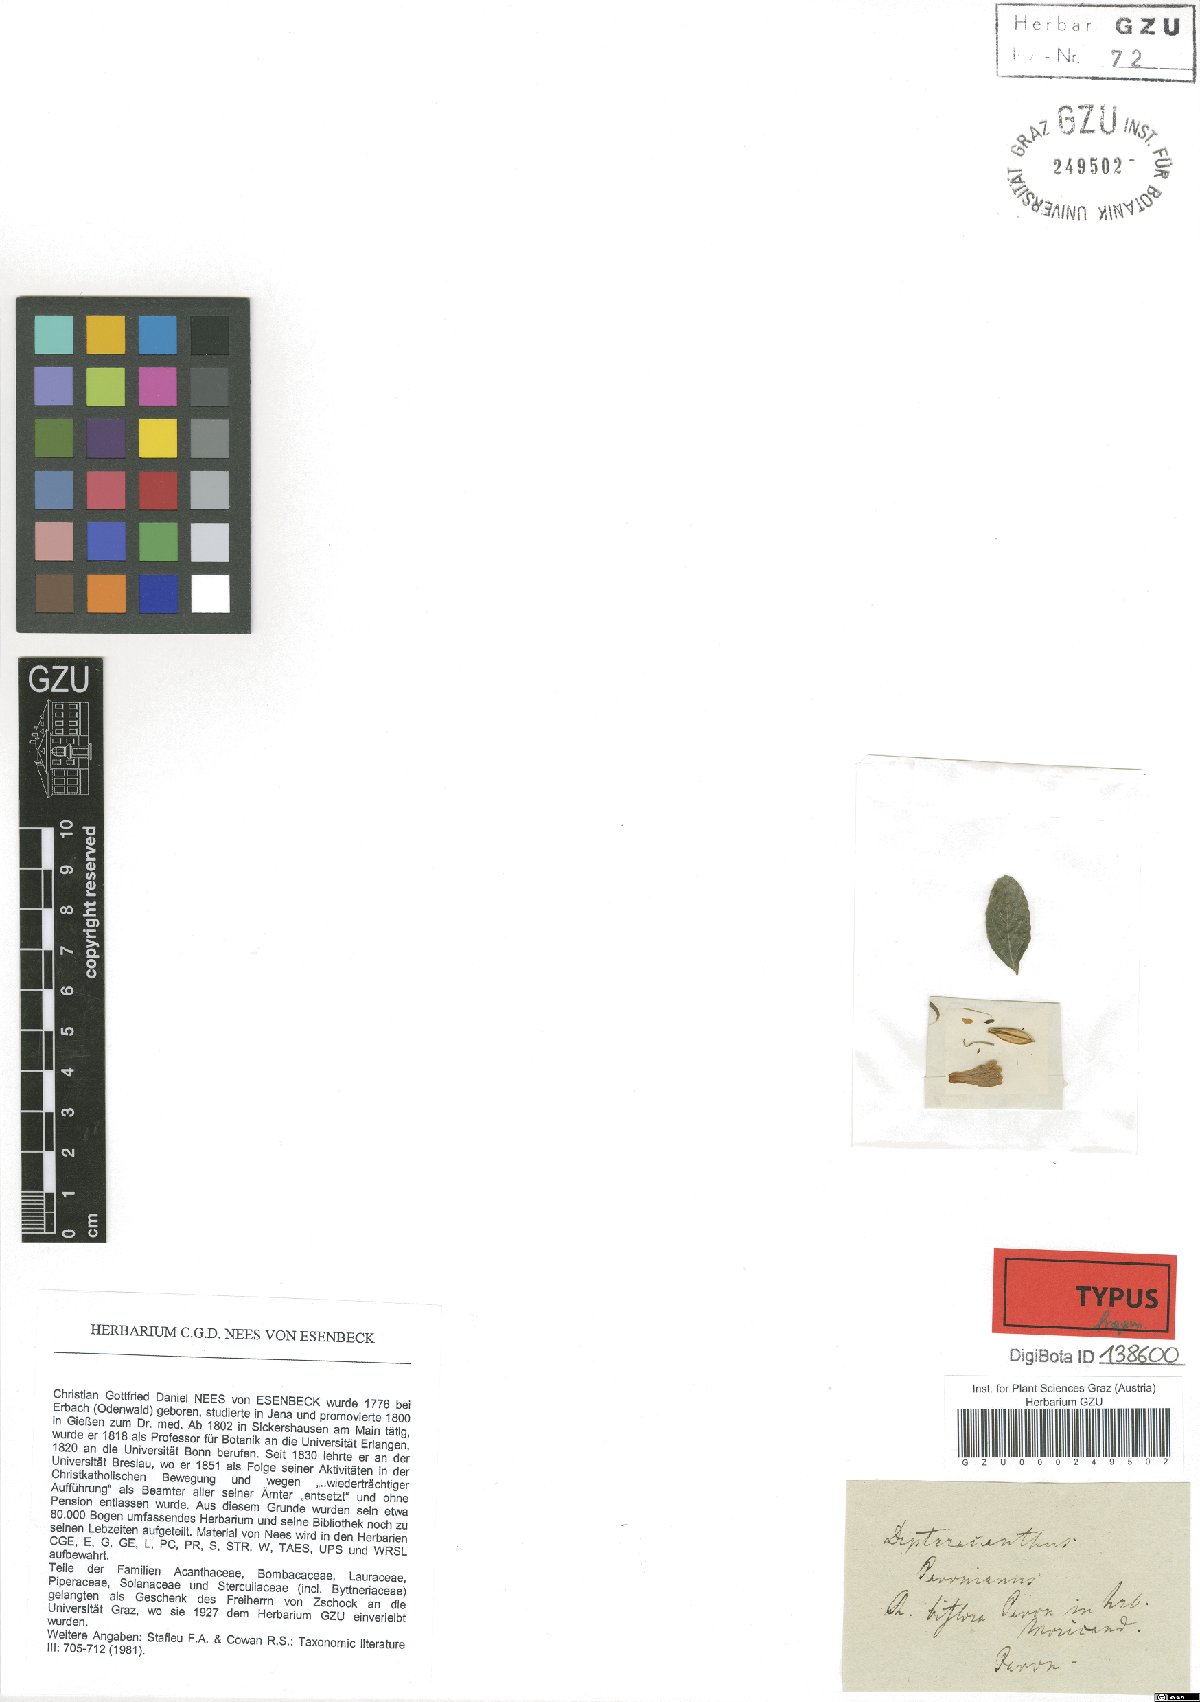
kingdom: Plantae
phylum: Tracheophyta
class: Magnoliopsida
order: Lamiales
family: Acanthaceae
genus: Ruellia
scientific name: Ruellia Dipteracanthus pavonianus
